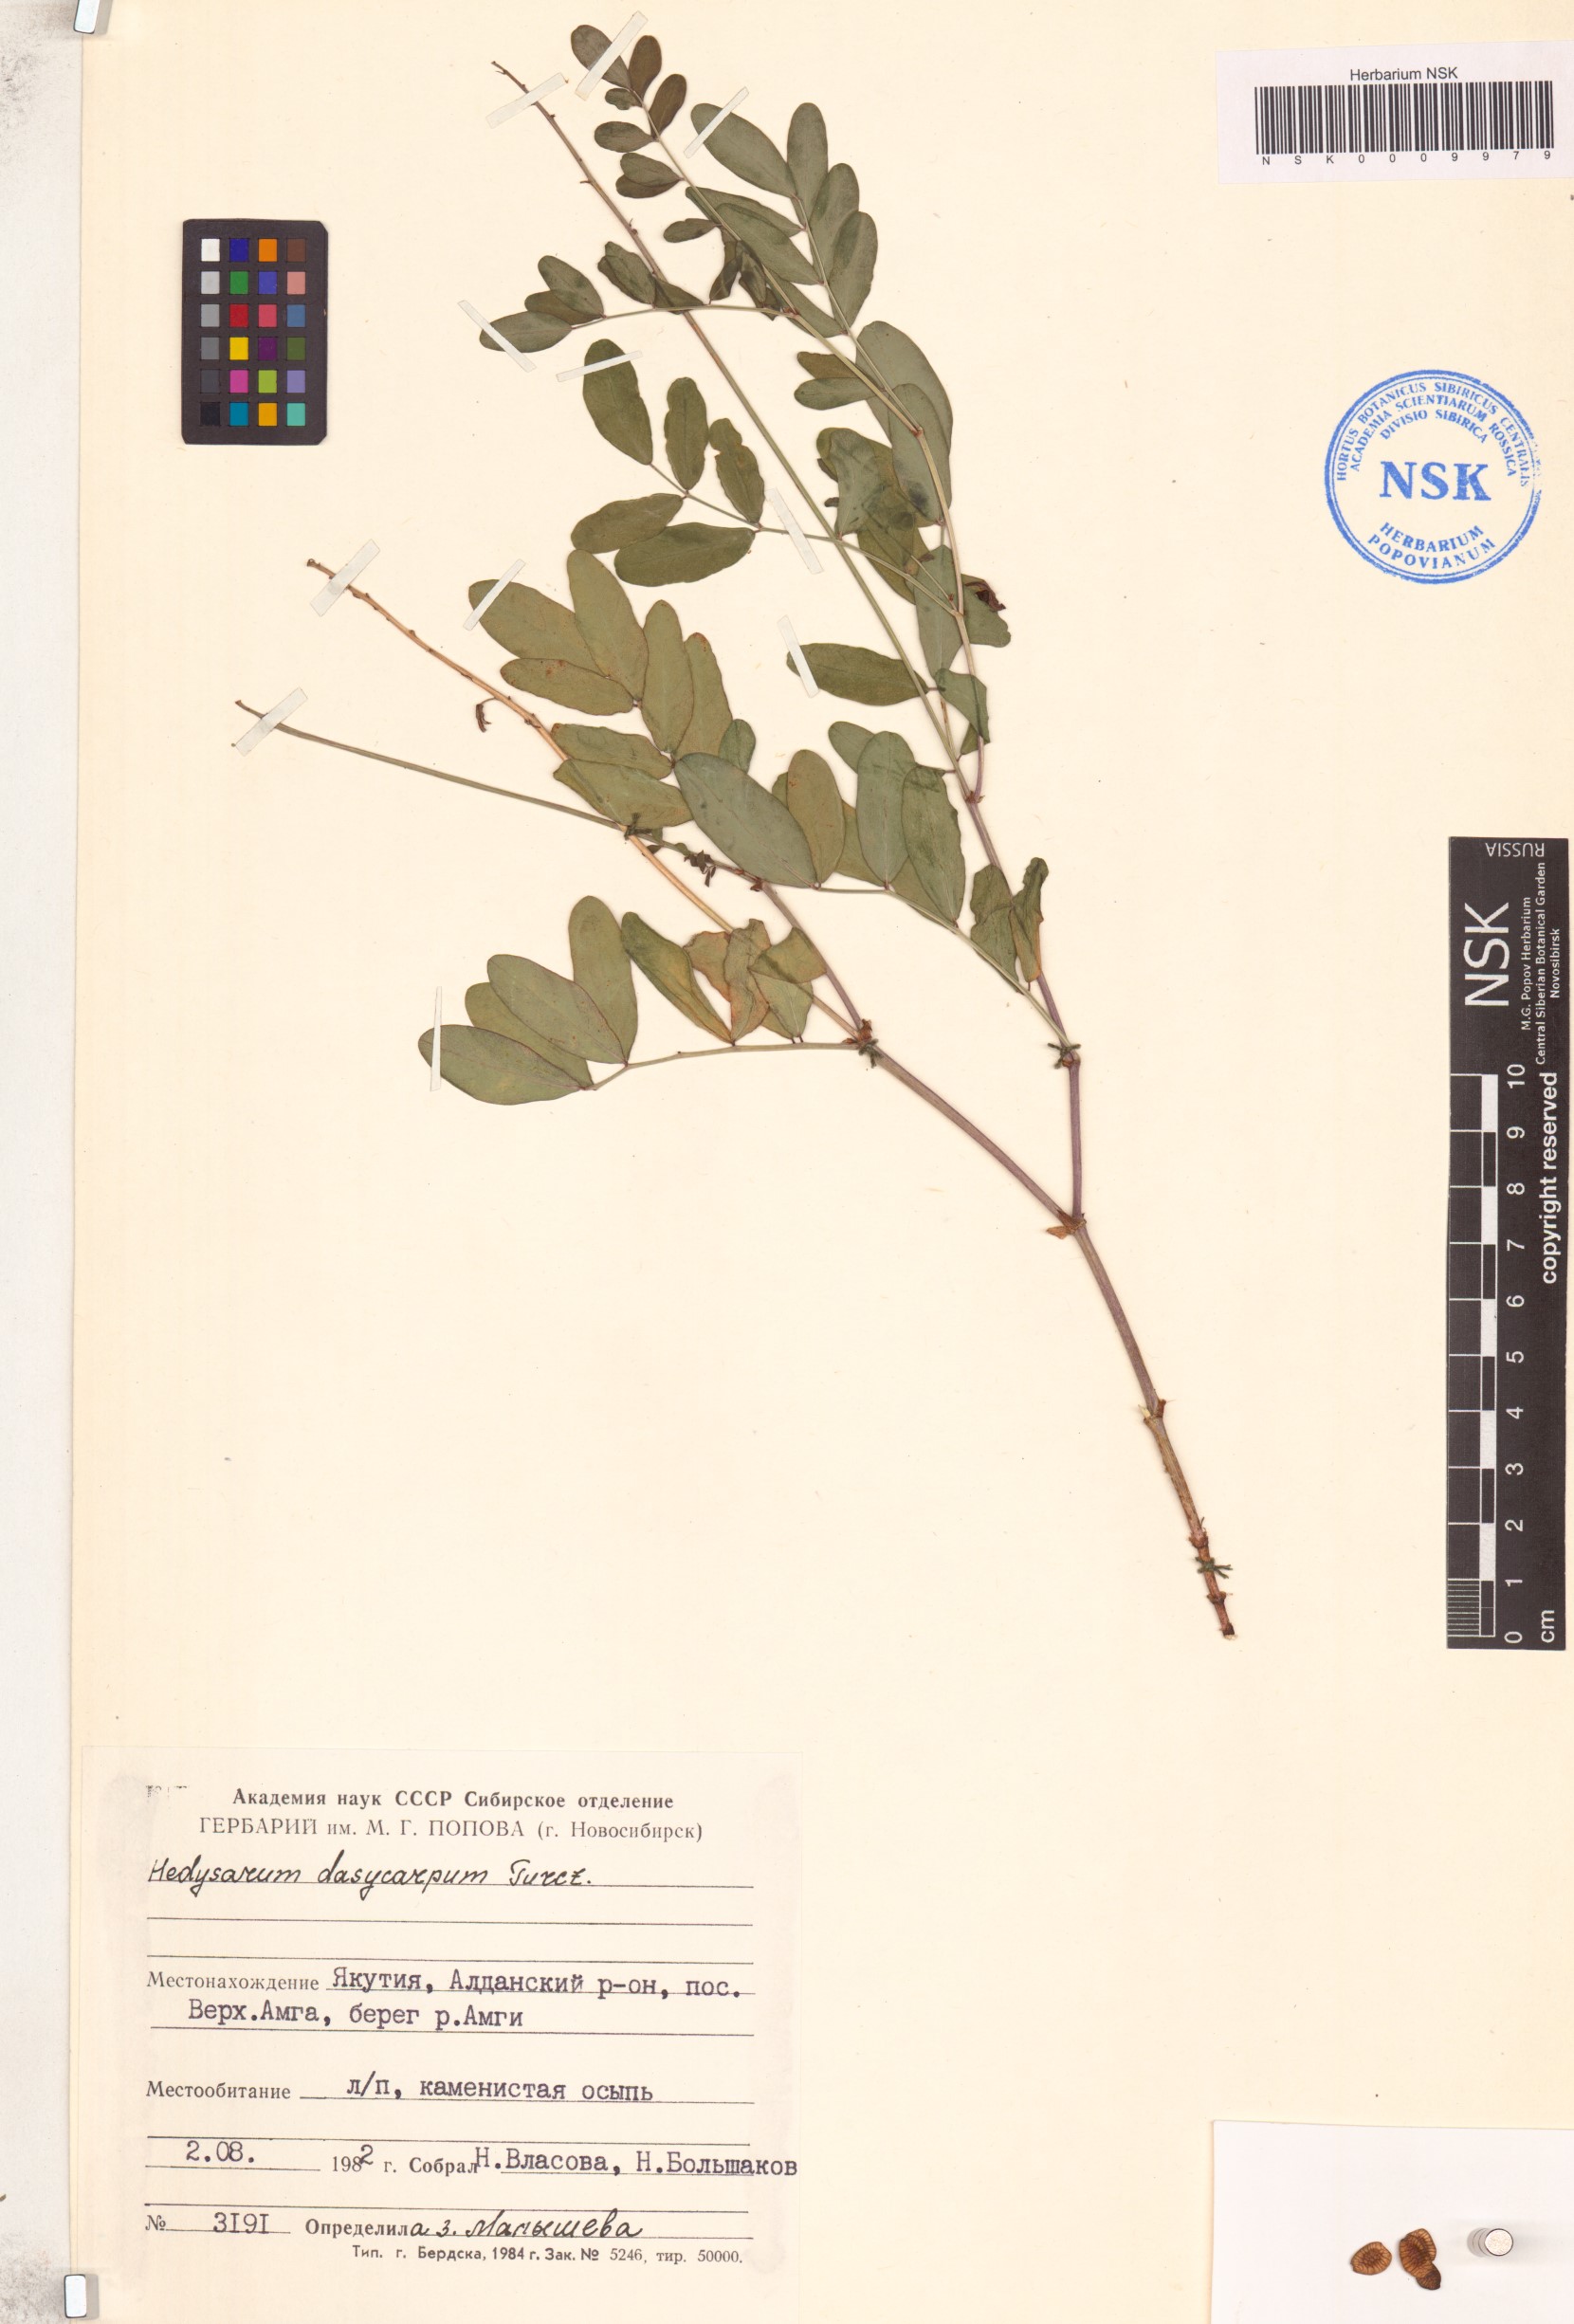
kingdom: Plantae
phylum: Tracheophyta
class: Magnoliopsida
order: Fabales
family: Fabaceae
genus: Hedysarum
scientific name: Hedysarum dasycarpum
